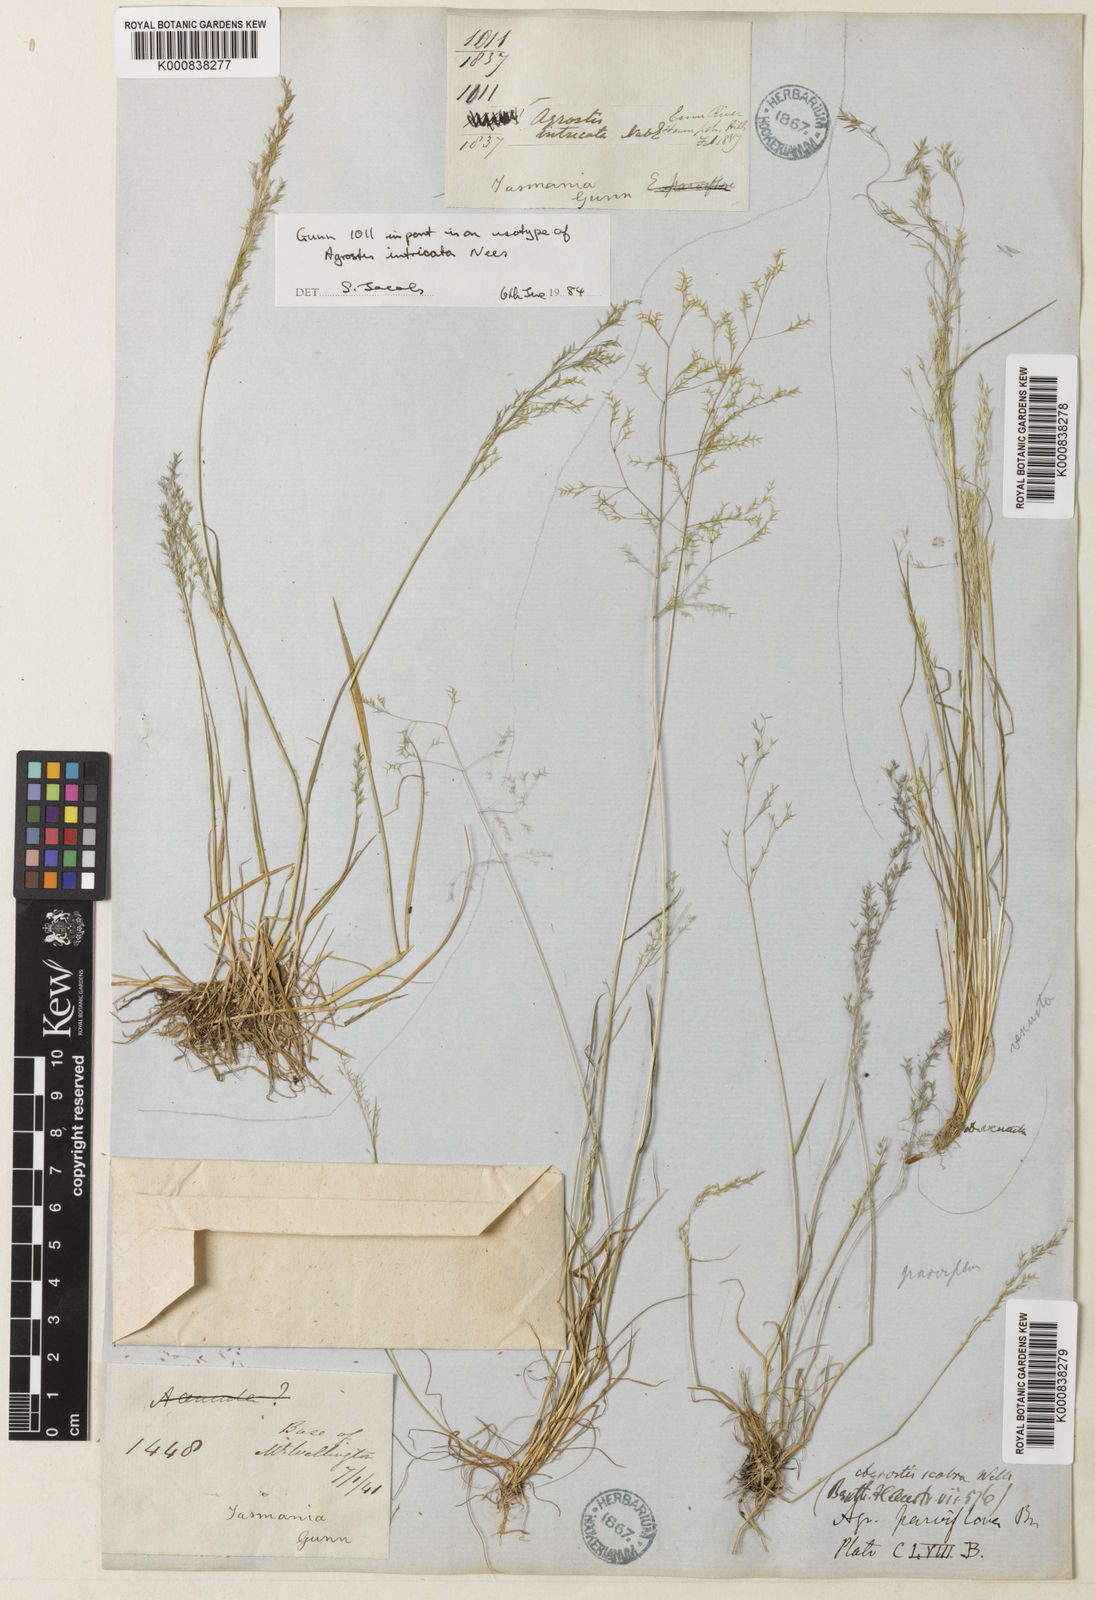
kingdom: Plantae
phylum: Tracheophyta
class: Liliopsida
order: Poales
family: Poaceae
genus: Agrostis
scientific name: Agrostis venusta
